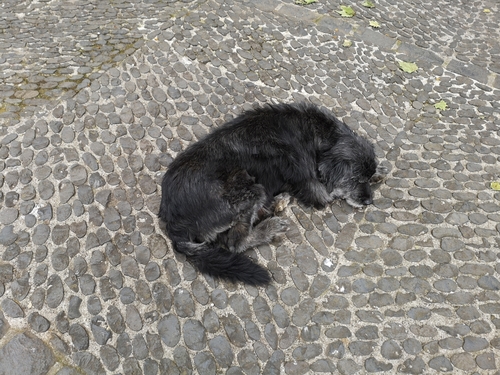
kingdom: Animalia
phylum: Chordata
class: Mammalia
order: Carnivora
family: Canidae
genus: Canis
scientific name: Canis lupus
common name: Gray wolf
